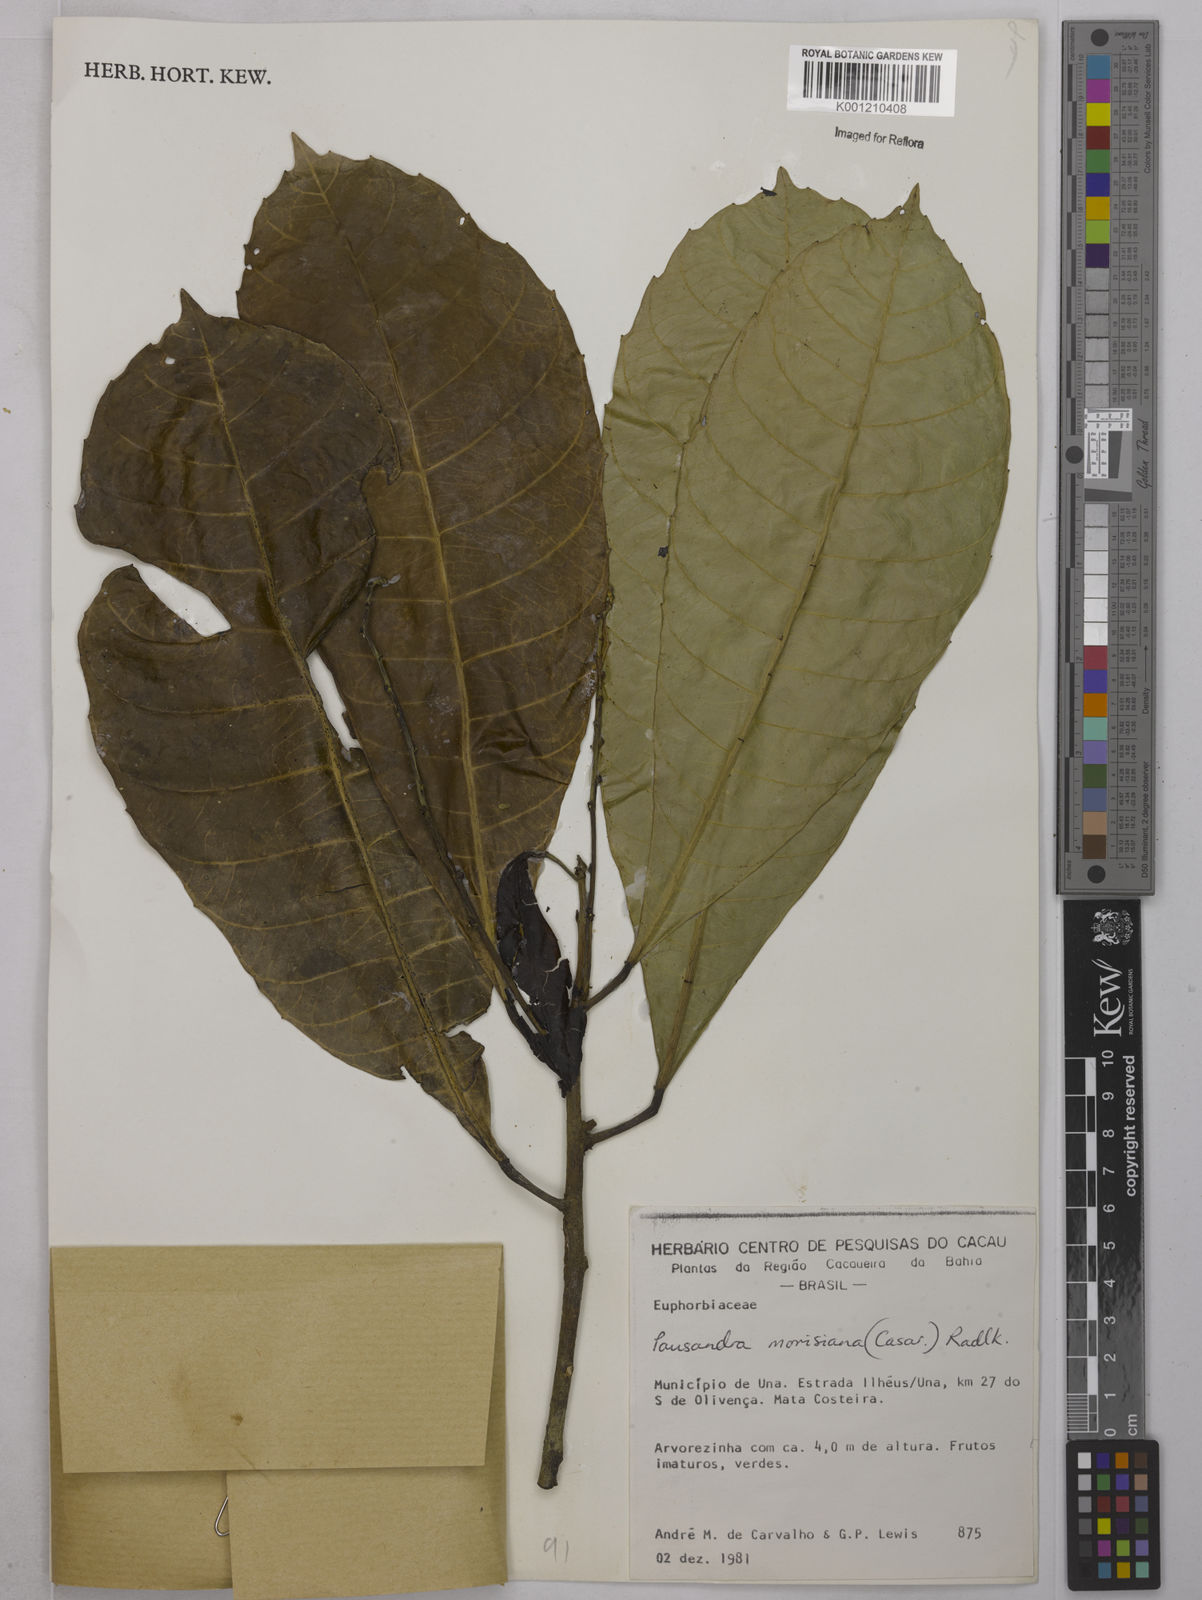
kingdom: Plantae
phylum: Tracheophyta
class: Magnoliopsida
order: Malpighiales
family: Euphorbiaceae
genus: Pausandra
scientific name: Pausandra morisiana
